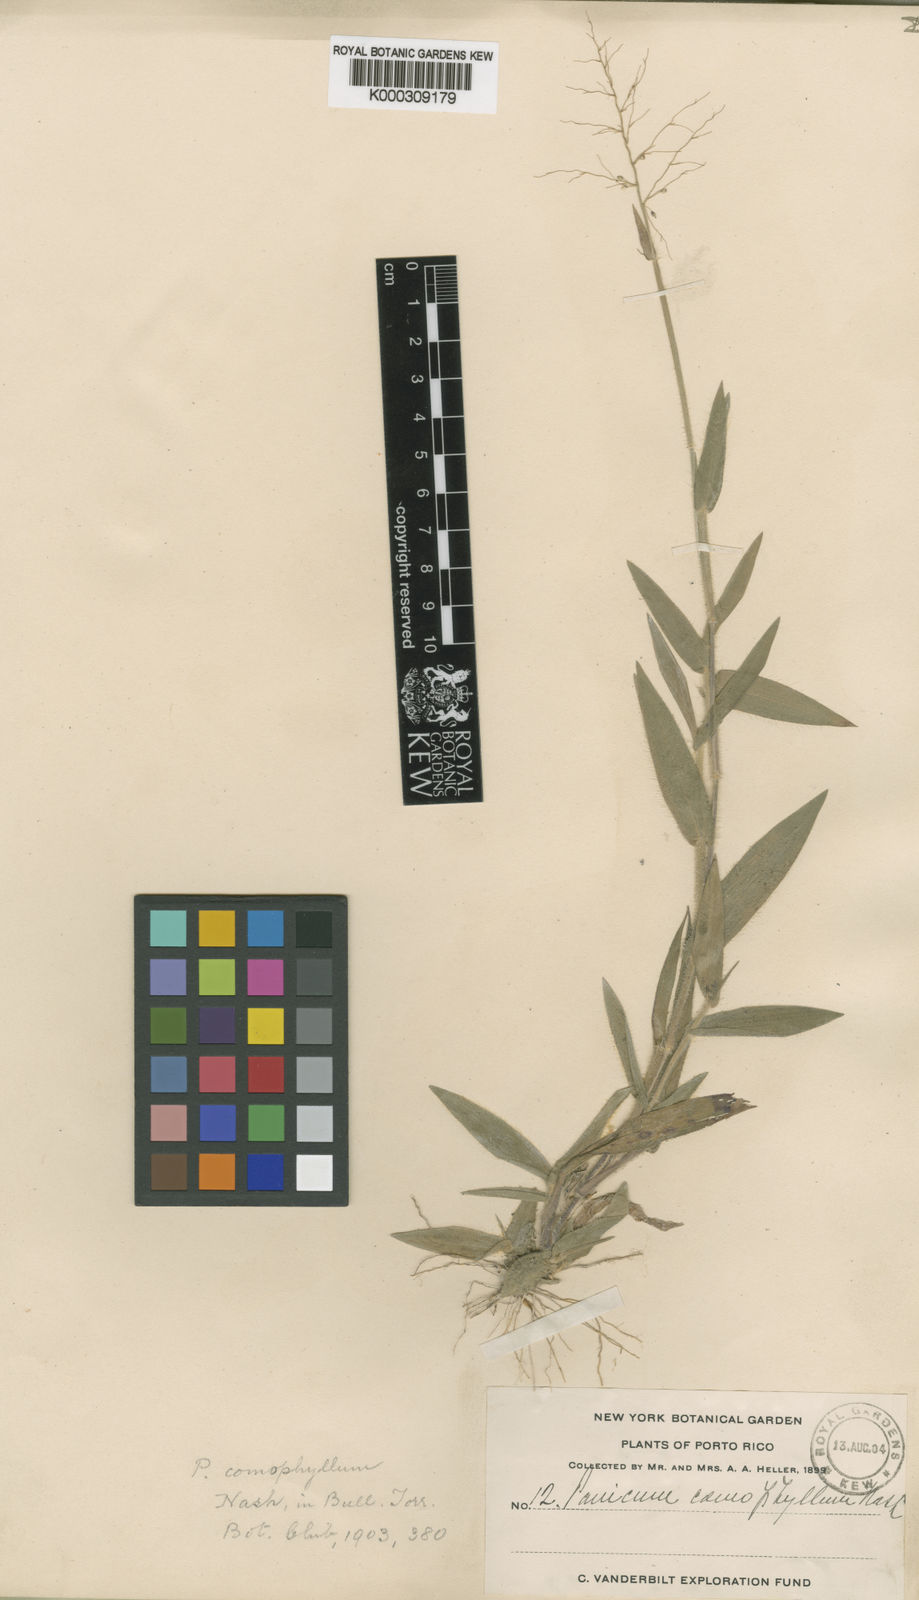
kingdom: Plantae
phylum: Tracheophyta
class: Liliopsida
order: Poales
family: Poaceae
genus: Dichanthelium
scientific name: Dichanthelium acuminatum
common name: Hairy panic grass
